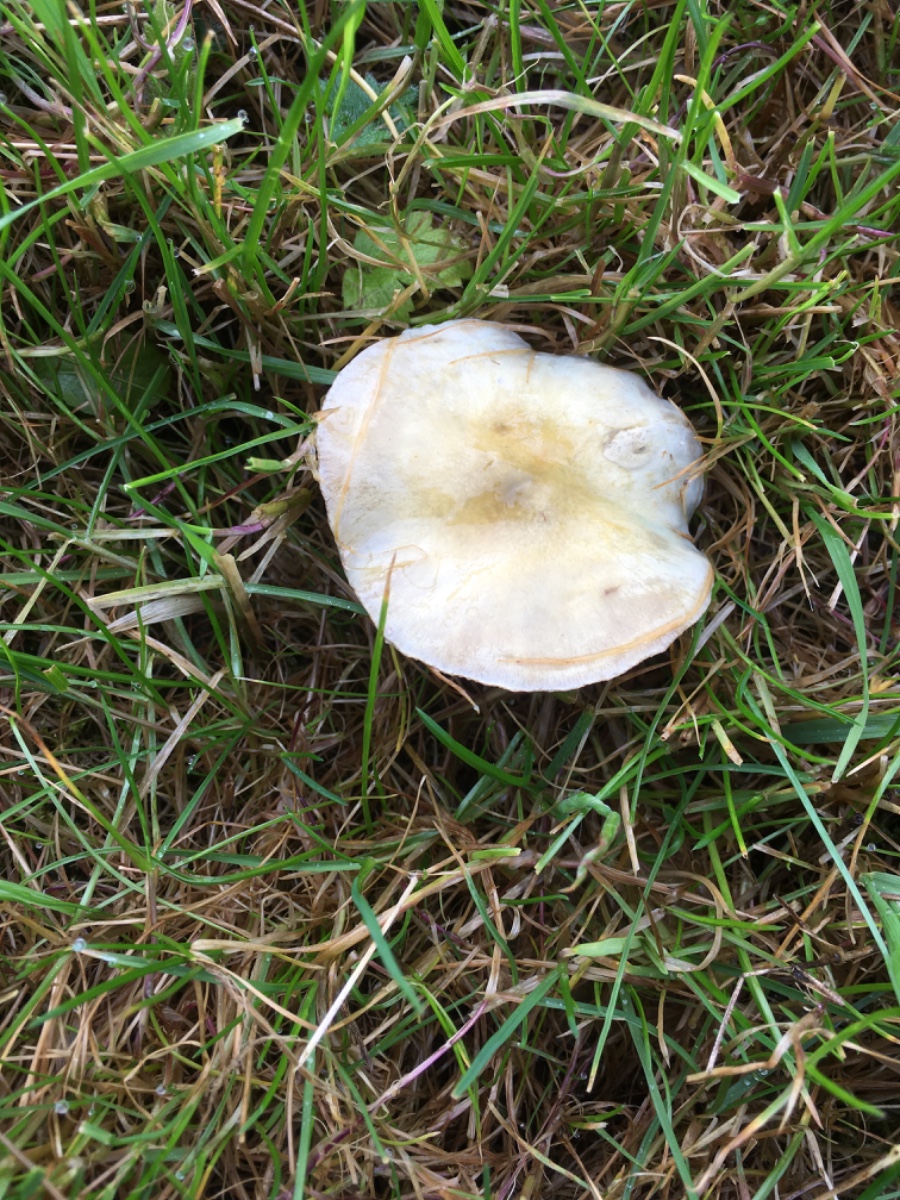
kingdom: Fungi
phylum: Basidiomycota
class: Agaricomycetes
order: Agaricales
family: Strophariaceae
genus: Stropharia
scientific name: Stropharia cyanea
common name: blågrøn bredblad
